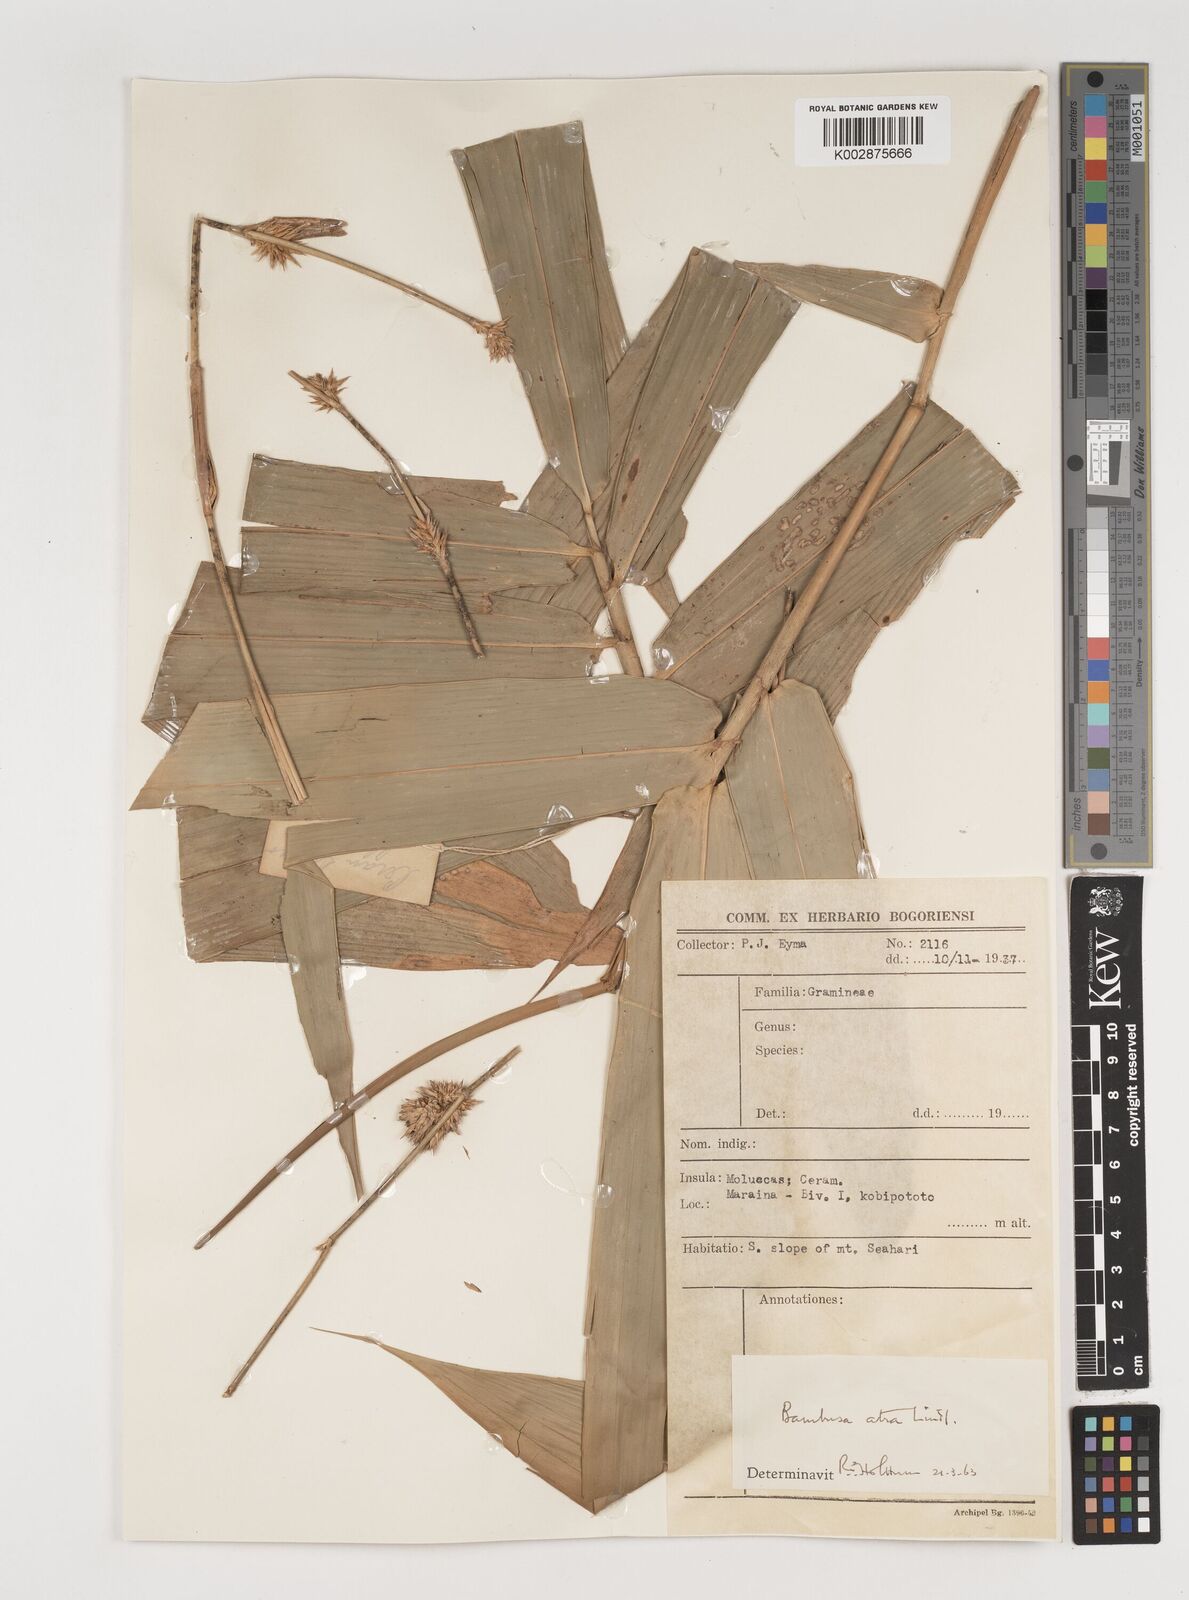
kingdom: Plantae
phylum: Tracheophyta
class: Liliopsida
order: Poales
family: Poaceae
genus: Neololeba
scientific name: Neololeba atra
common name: Cape bamboo
